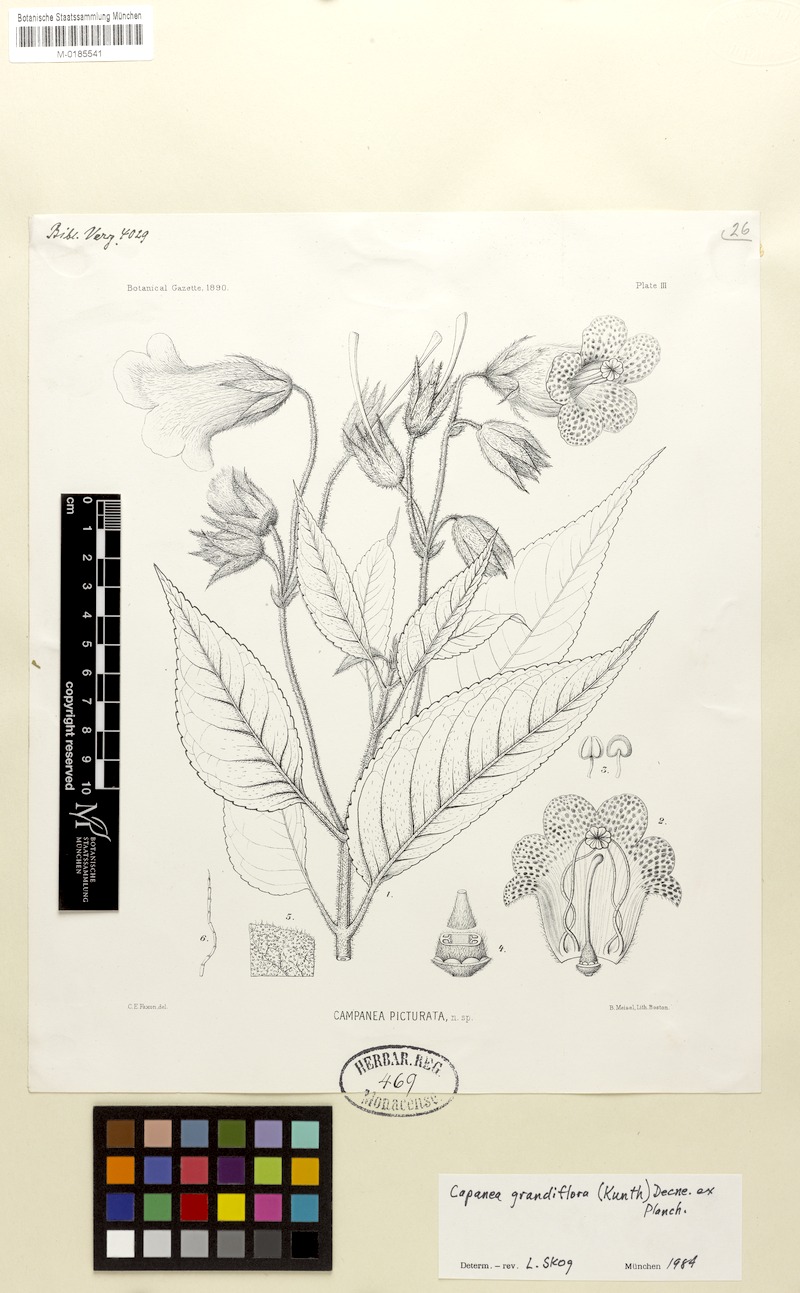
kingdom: Plantae
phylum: Tracheophyta
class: Magnoliopsida
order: Lamiales
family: Gesneriaceae
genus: Kohleria
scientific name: Kohleria tigridia
